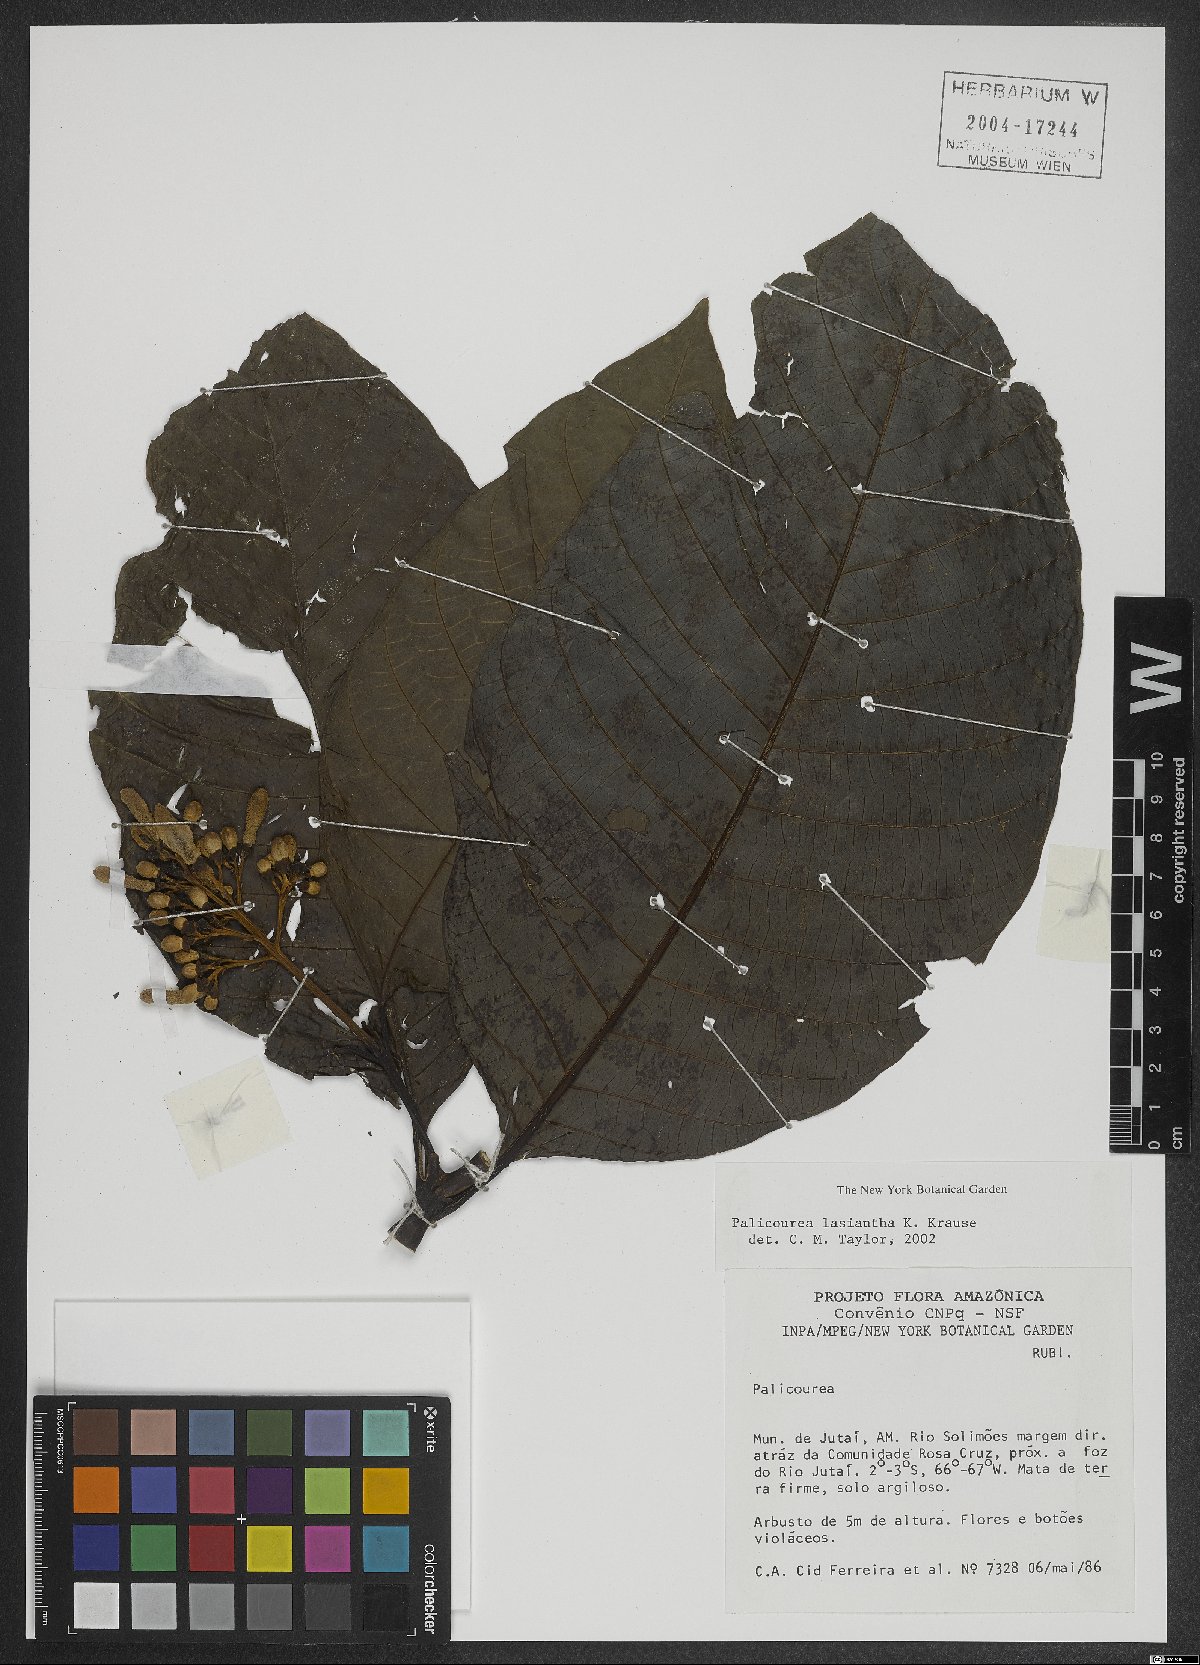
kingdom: Plantae
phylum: Tracheophyta
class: Magnoliopsida
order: Gentianales
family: Rubiaceae
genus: Palicourea
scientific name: Palicourea lasiantha
